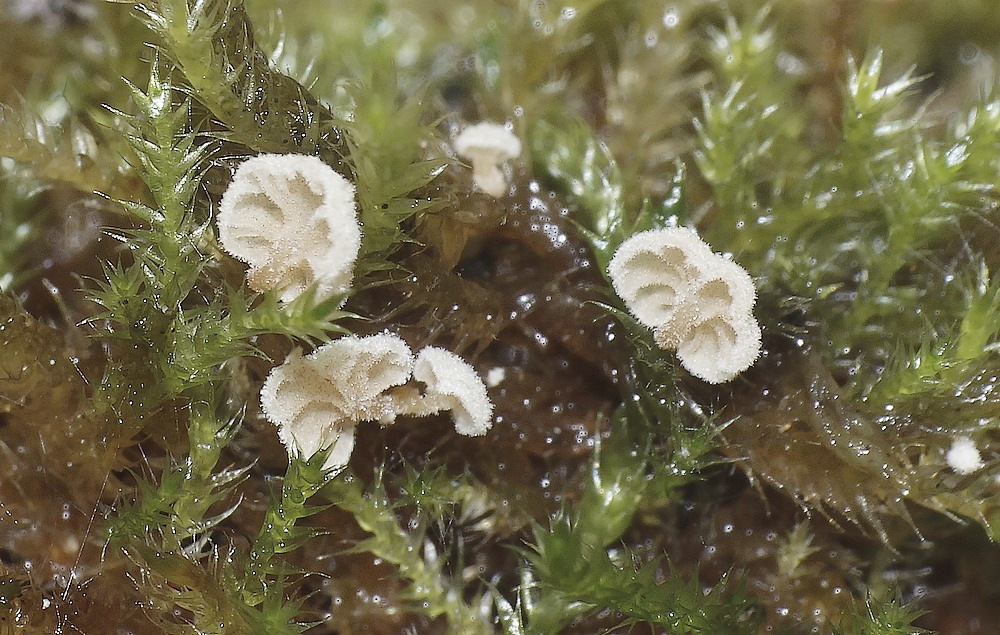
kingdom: Fungi
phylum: Basidiomycota
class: Agaricomycetes
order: Agaricales
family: Chromocyphellaceae
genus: Chromocyphella
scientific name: Chromocyphella lamellata
